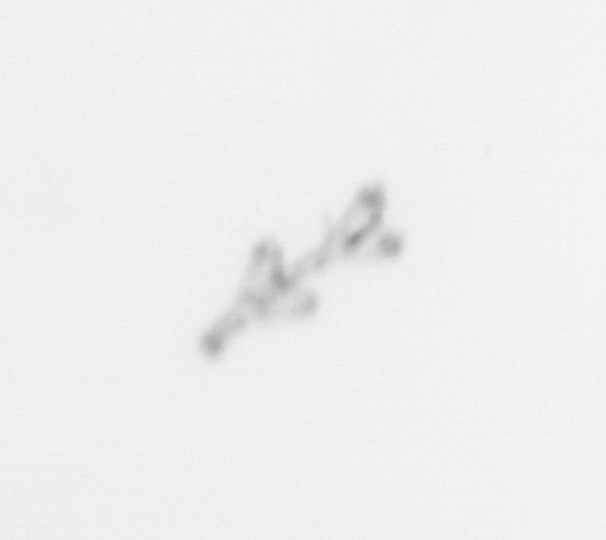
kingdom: Animalia
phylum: Cnidaria
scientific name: Cnidaria
